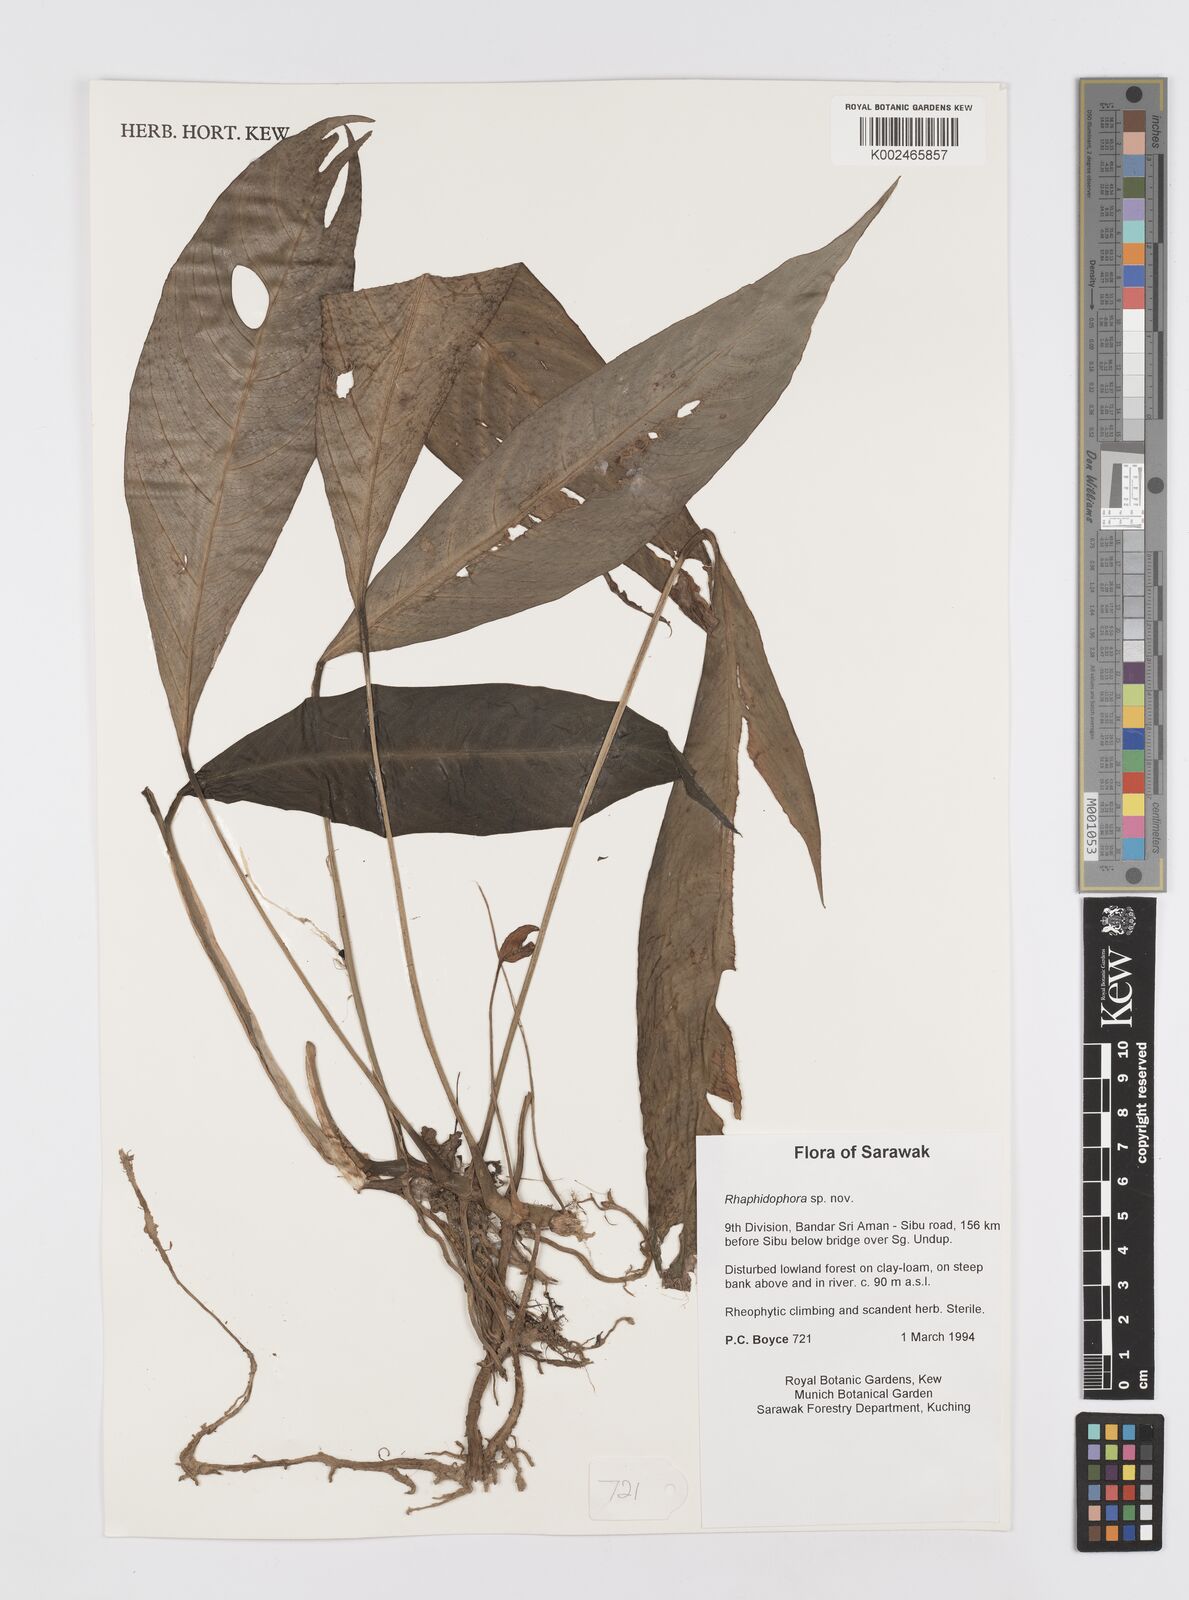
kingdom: Plantae
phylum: Tracheophyta
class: Liliopsida
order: Alismatales
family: Araceae
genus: Rhaphidophora
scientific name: Rhaphidophora megasperma
